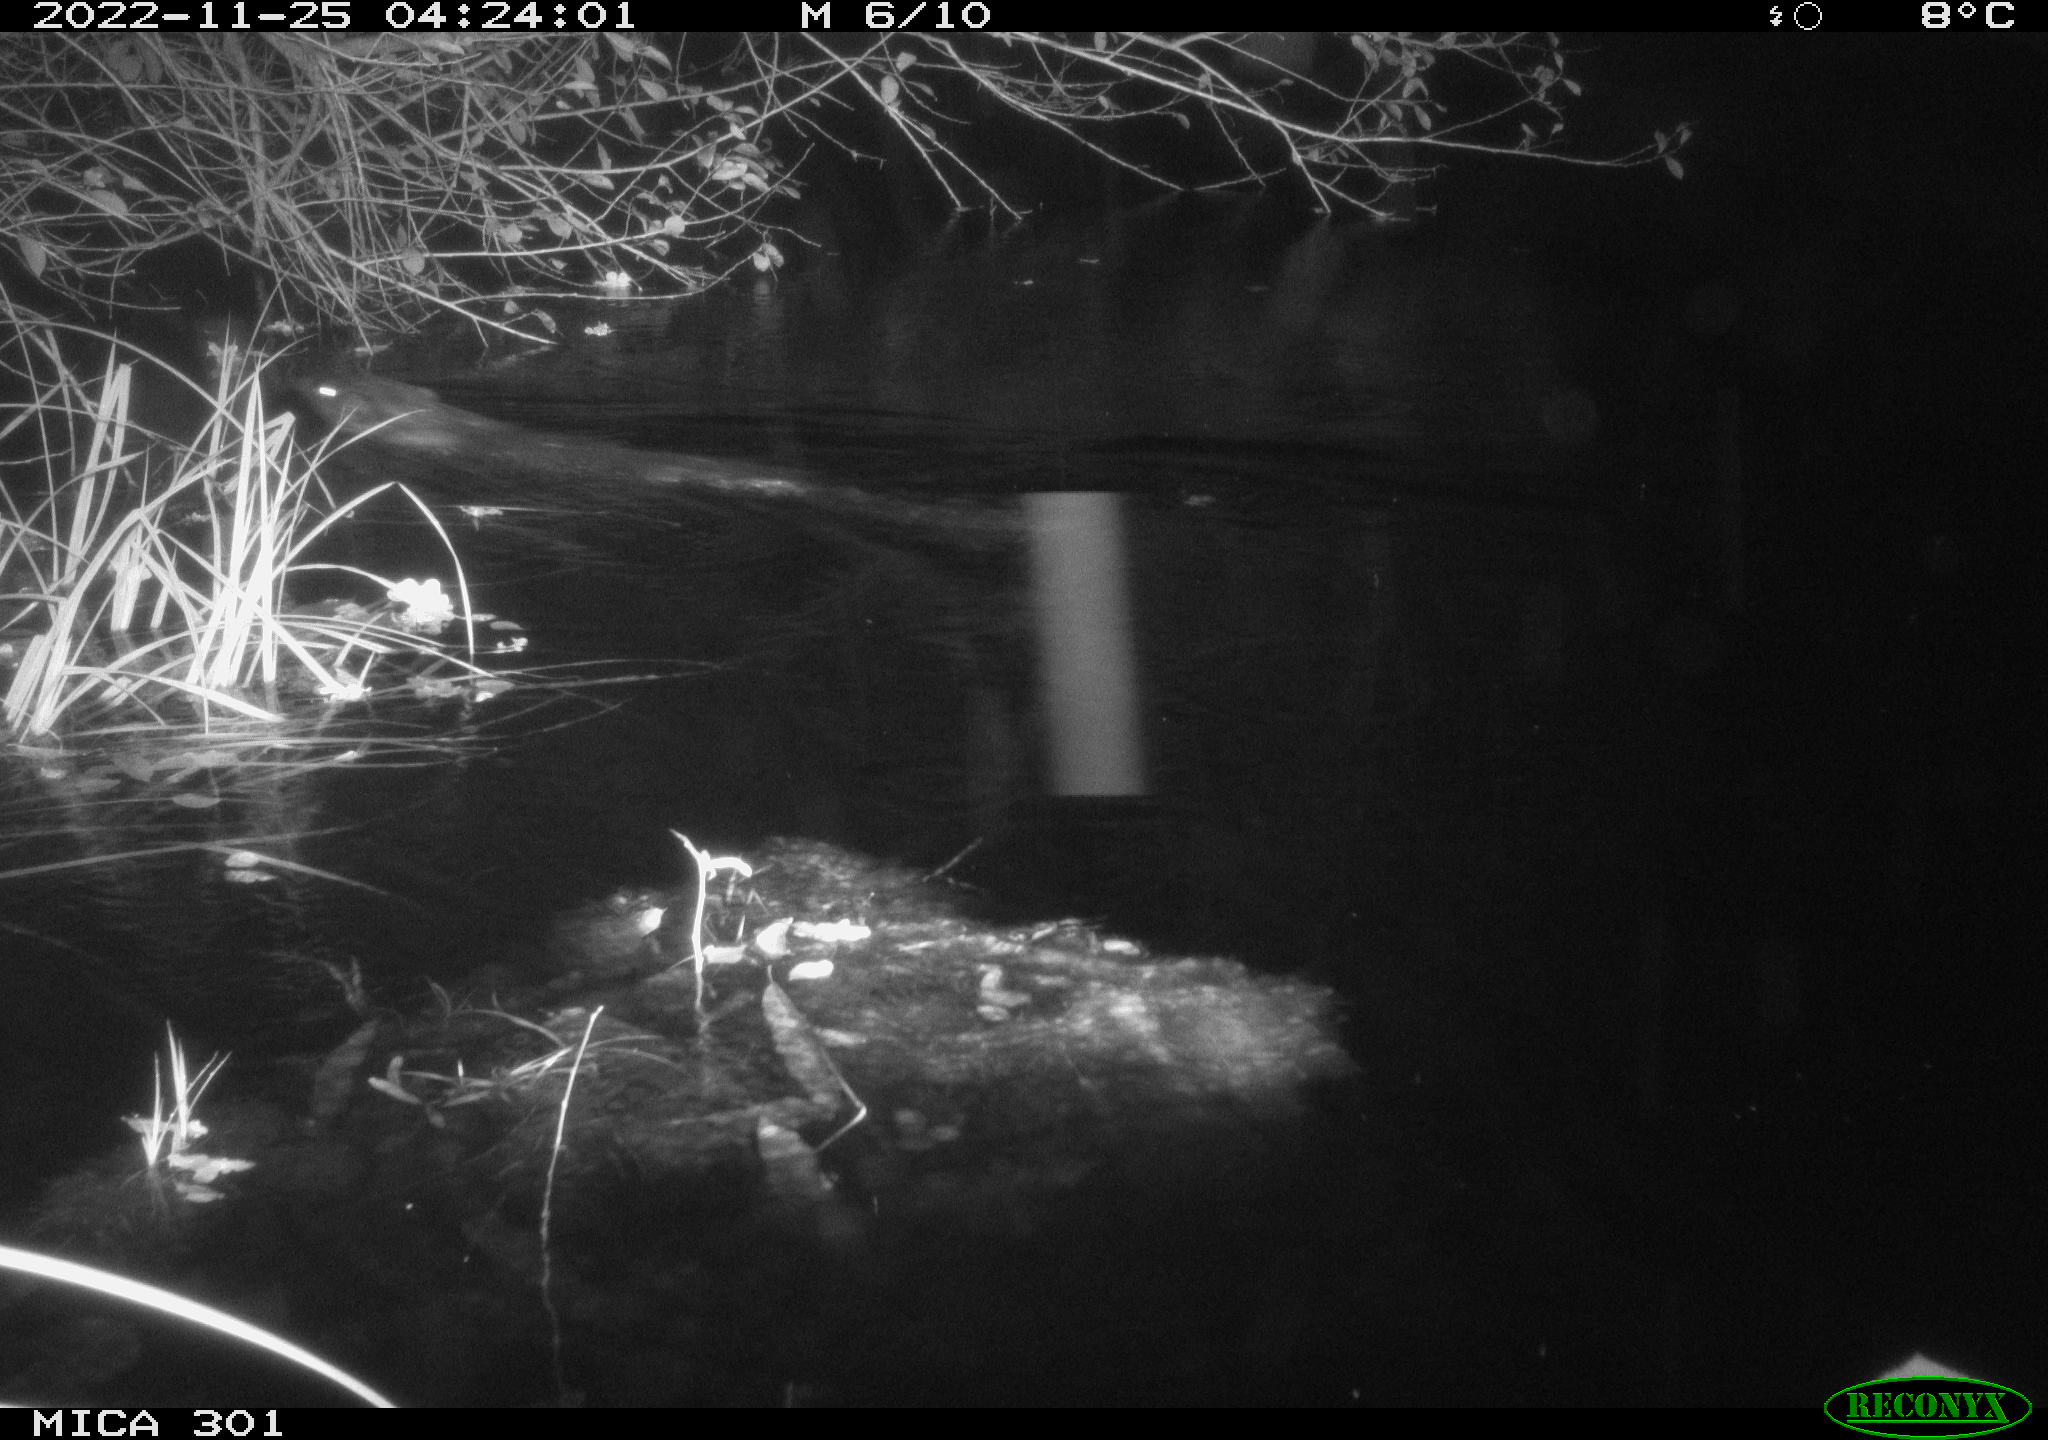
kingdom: Animalia
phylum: Chordata
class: Mammalia
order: Rodentia
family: Castoridae
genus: Castor
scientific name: Castor fiber
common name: Eurasian beaver
